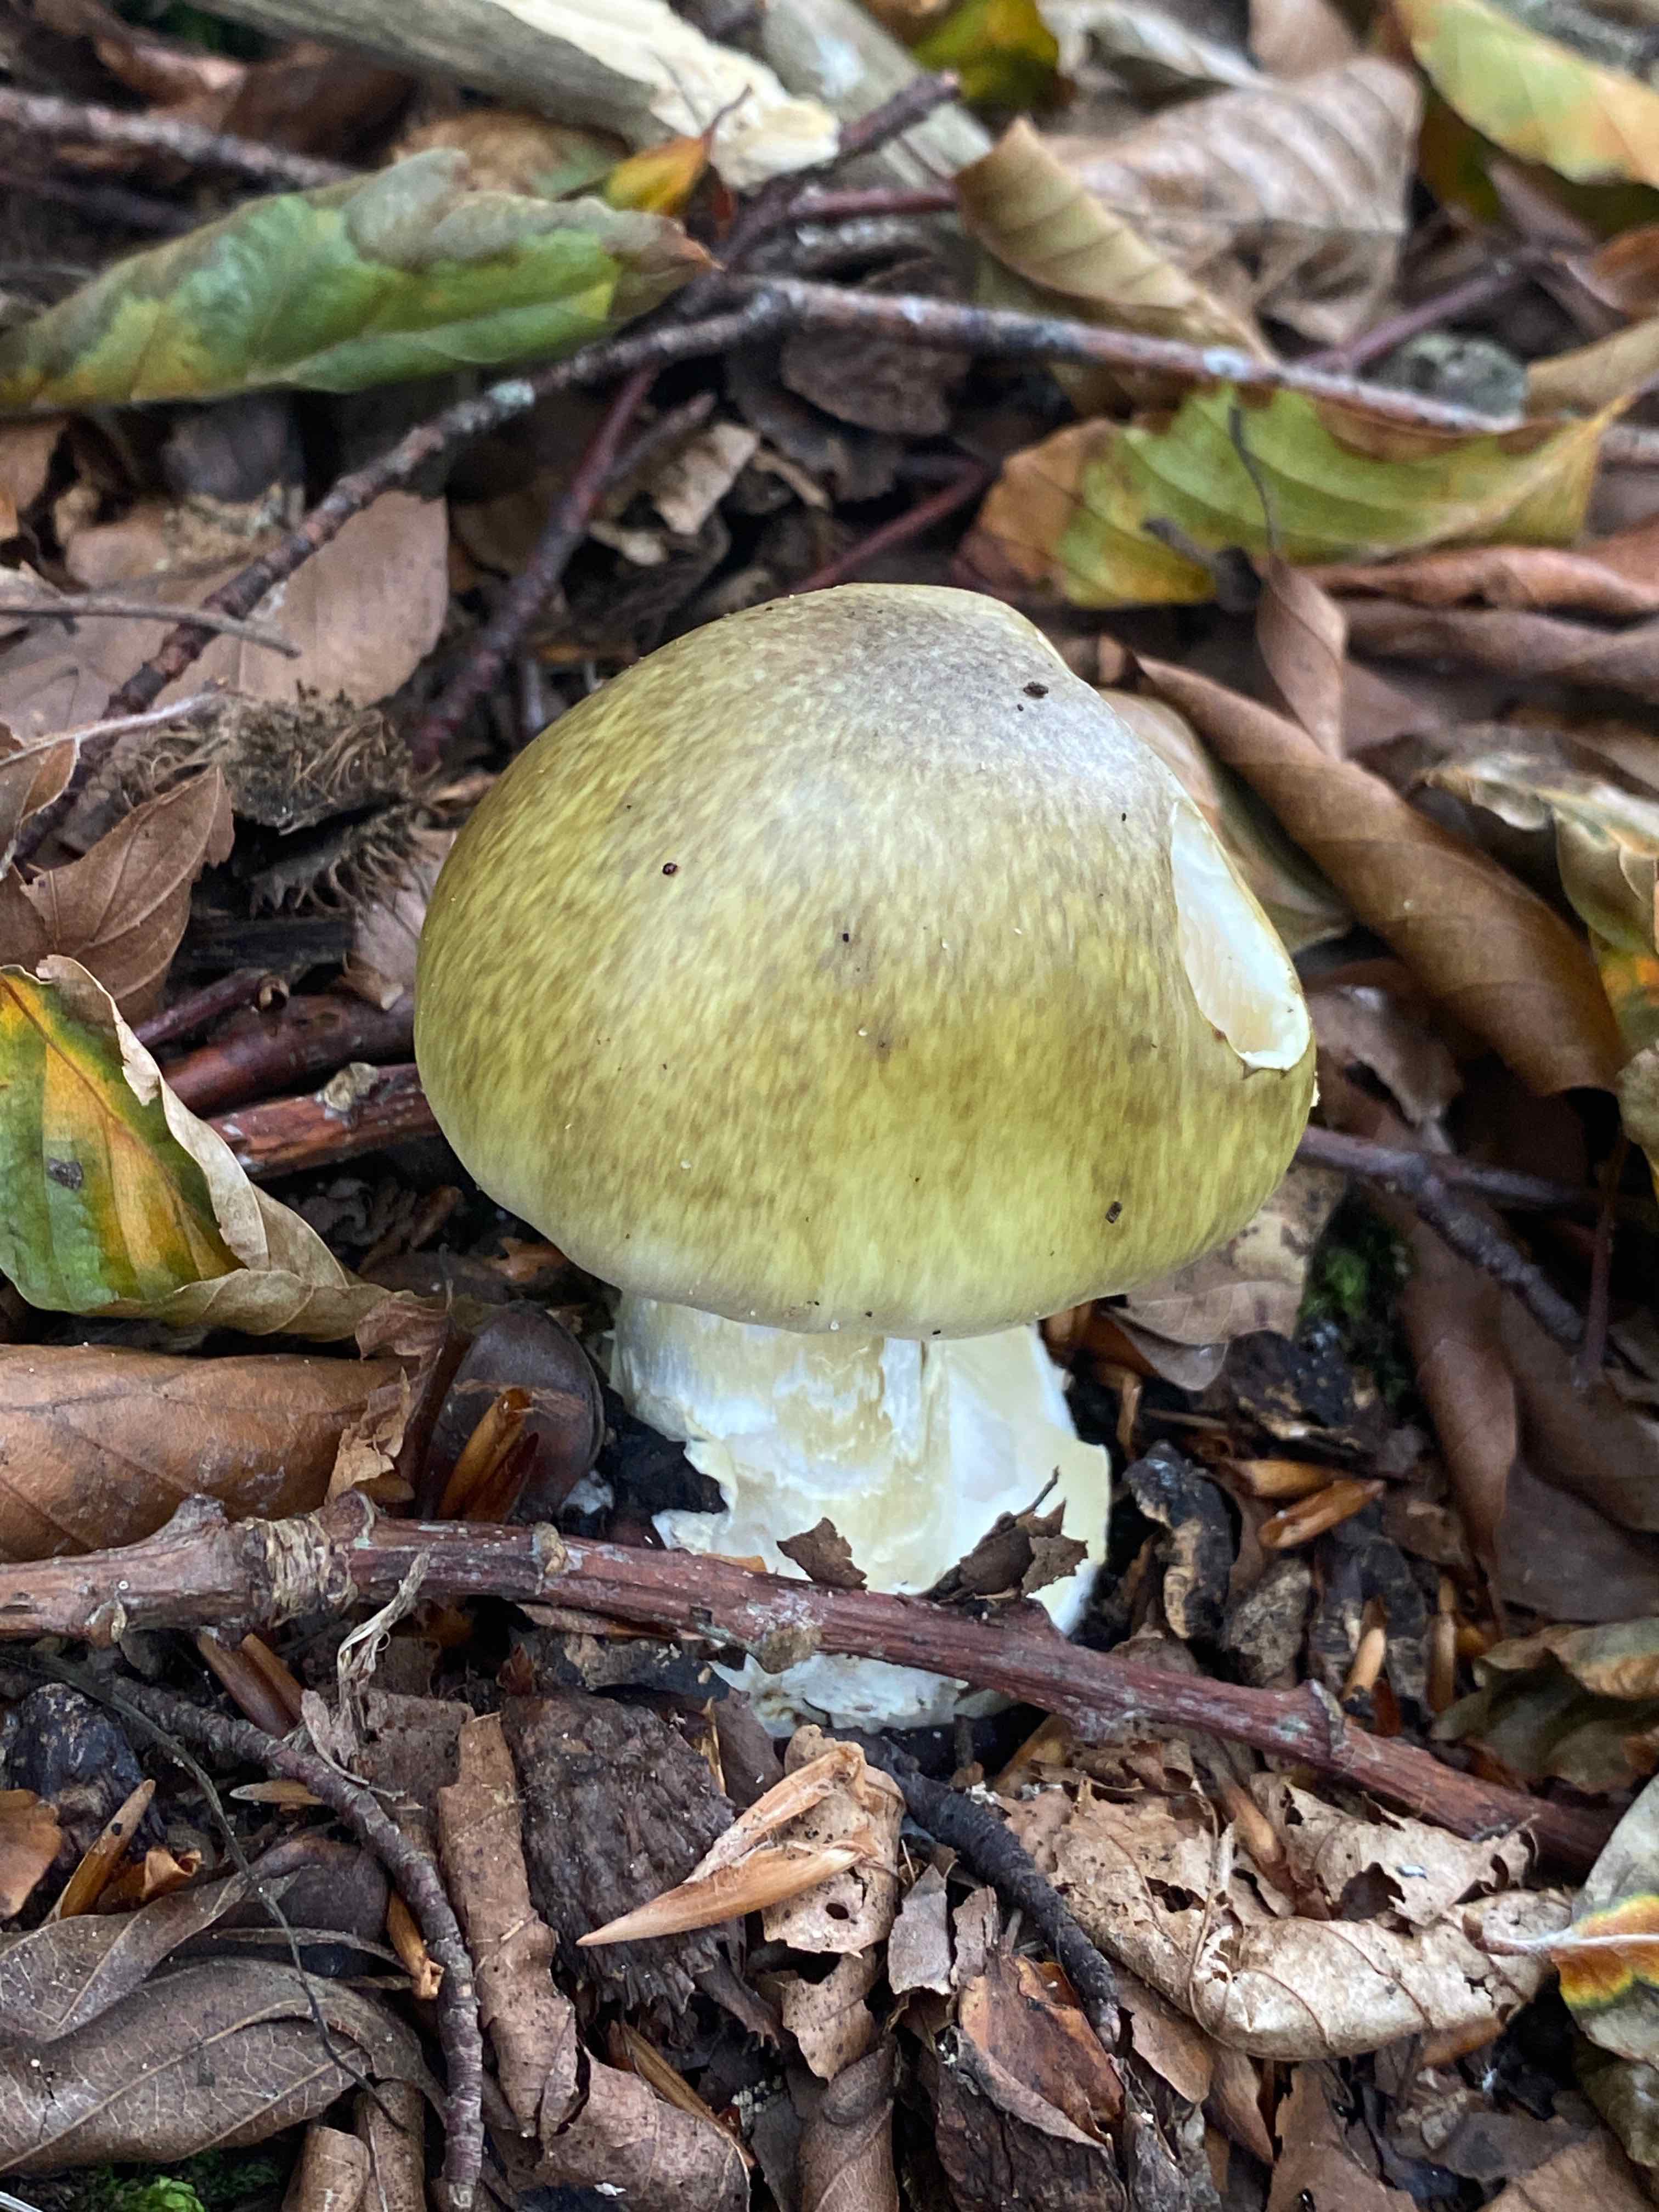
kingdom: Fungi
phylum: Basidiomycota
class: Agaricomycetes
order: Agaricales
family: Amanitaceae
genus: Amanita
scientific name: Amanita phalloides
